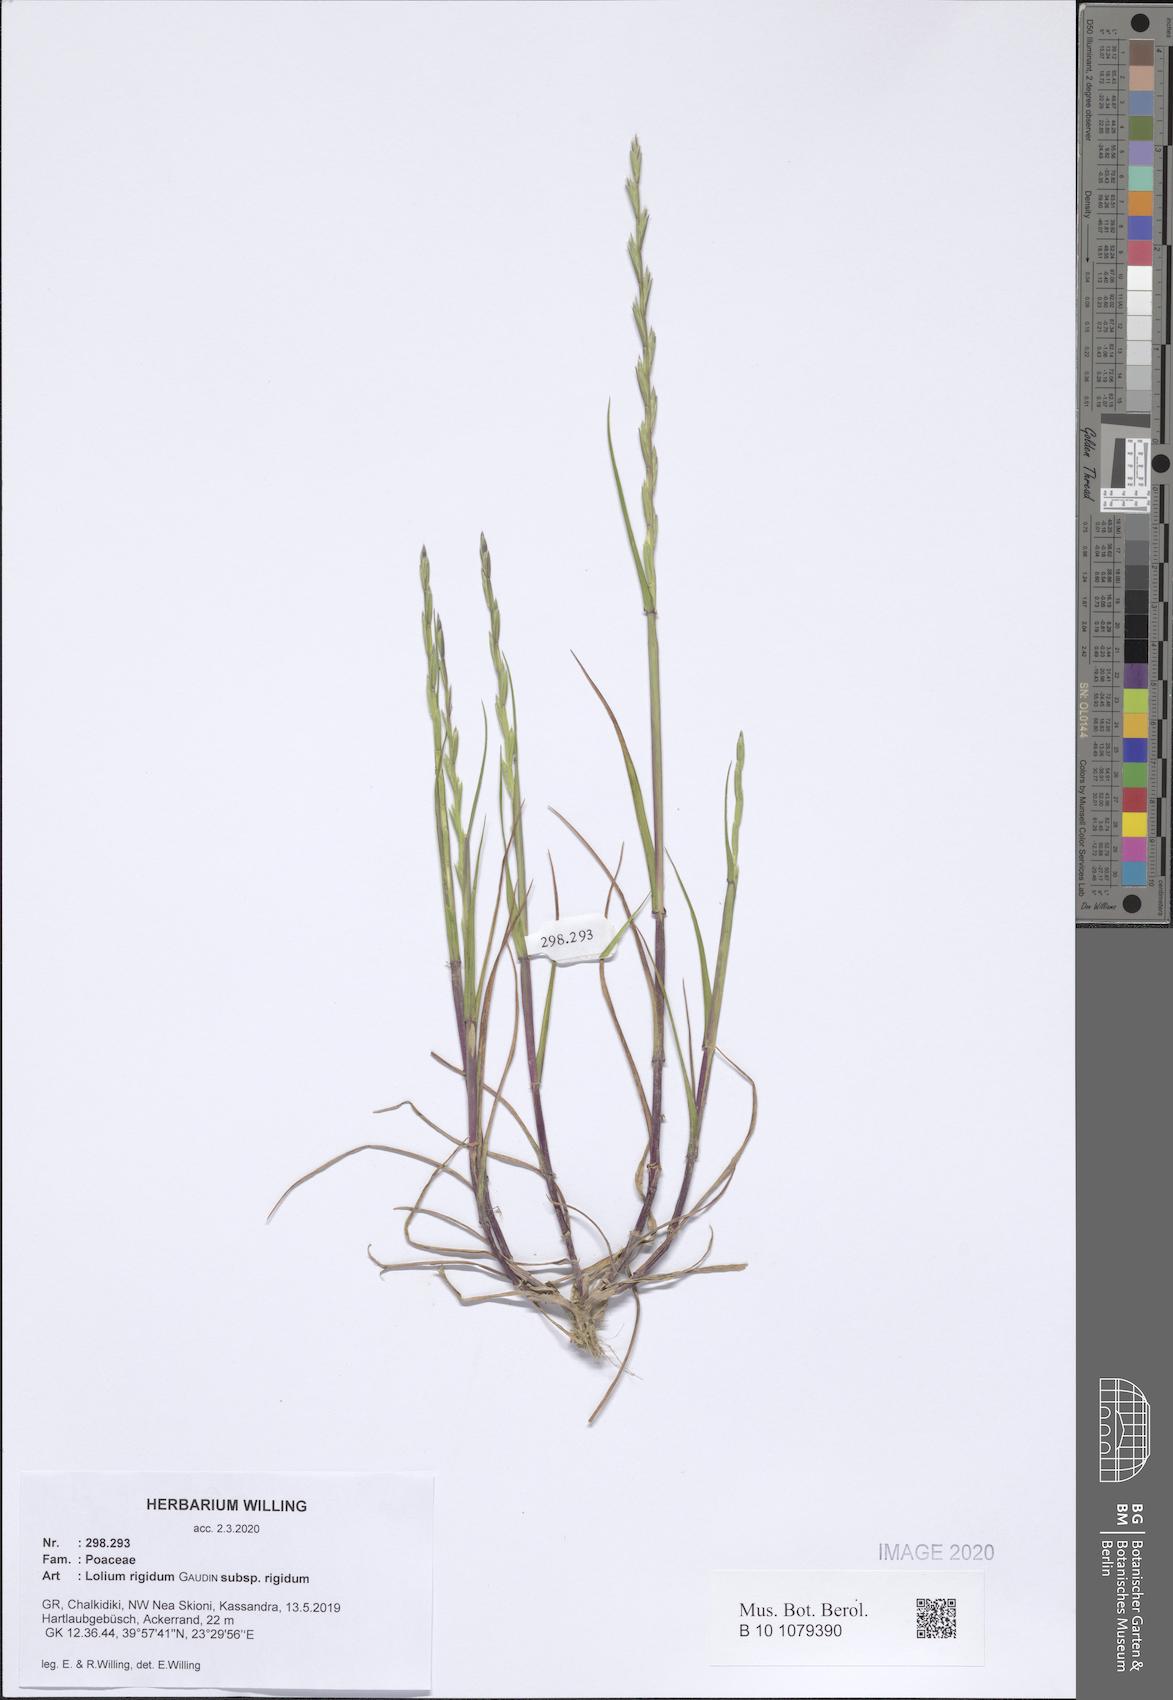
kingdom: Plantae
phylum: Tracheophyta
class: Liliopsida
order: Poales
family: Poaceae
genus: Lolium
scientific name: Lolium rigidum
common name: Wimmera ryegrass
